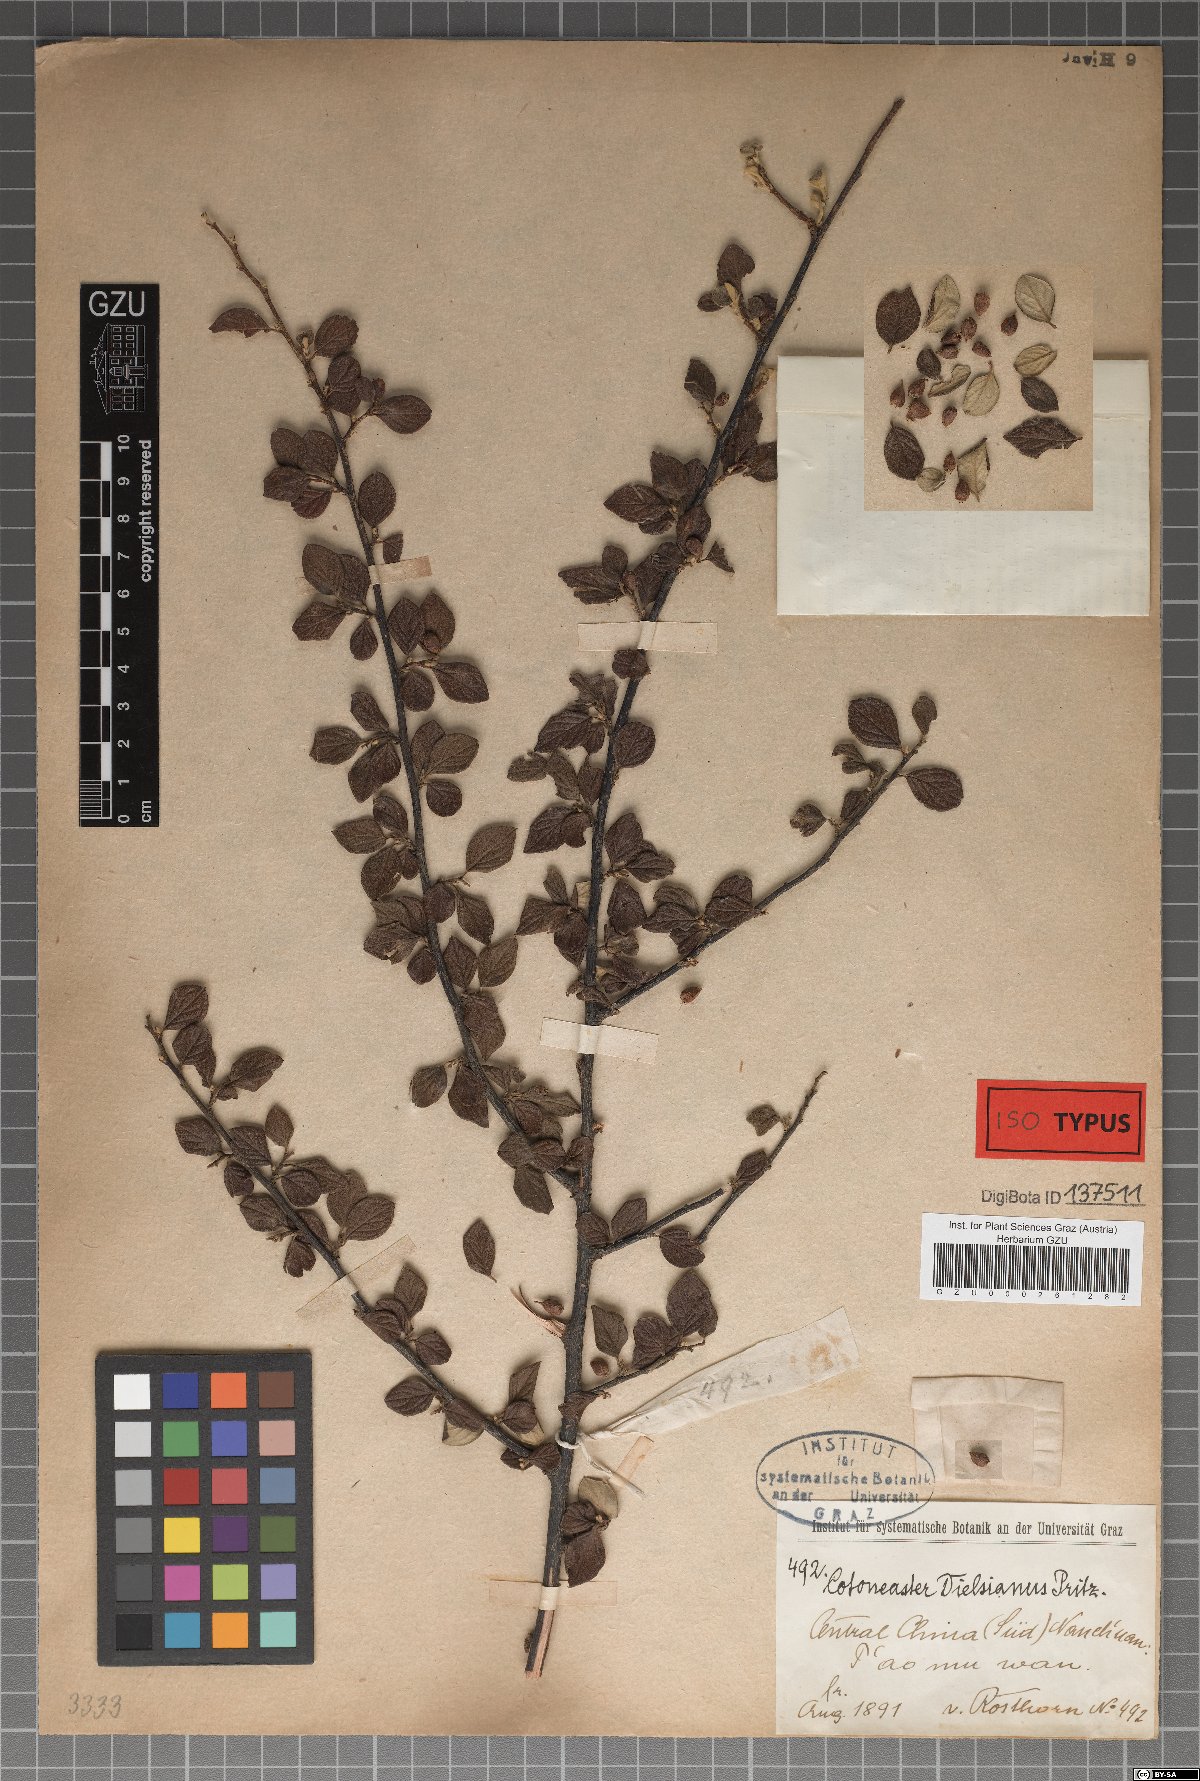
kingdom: Plantae
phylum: Tracheophyta
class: Magnoliopsida
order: Rosales
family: Rosaceae
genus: Cotoneaster
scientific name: Cotoneaster dielsianus
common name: Diels's cotoneaster
